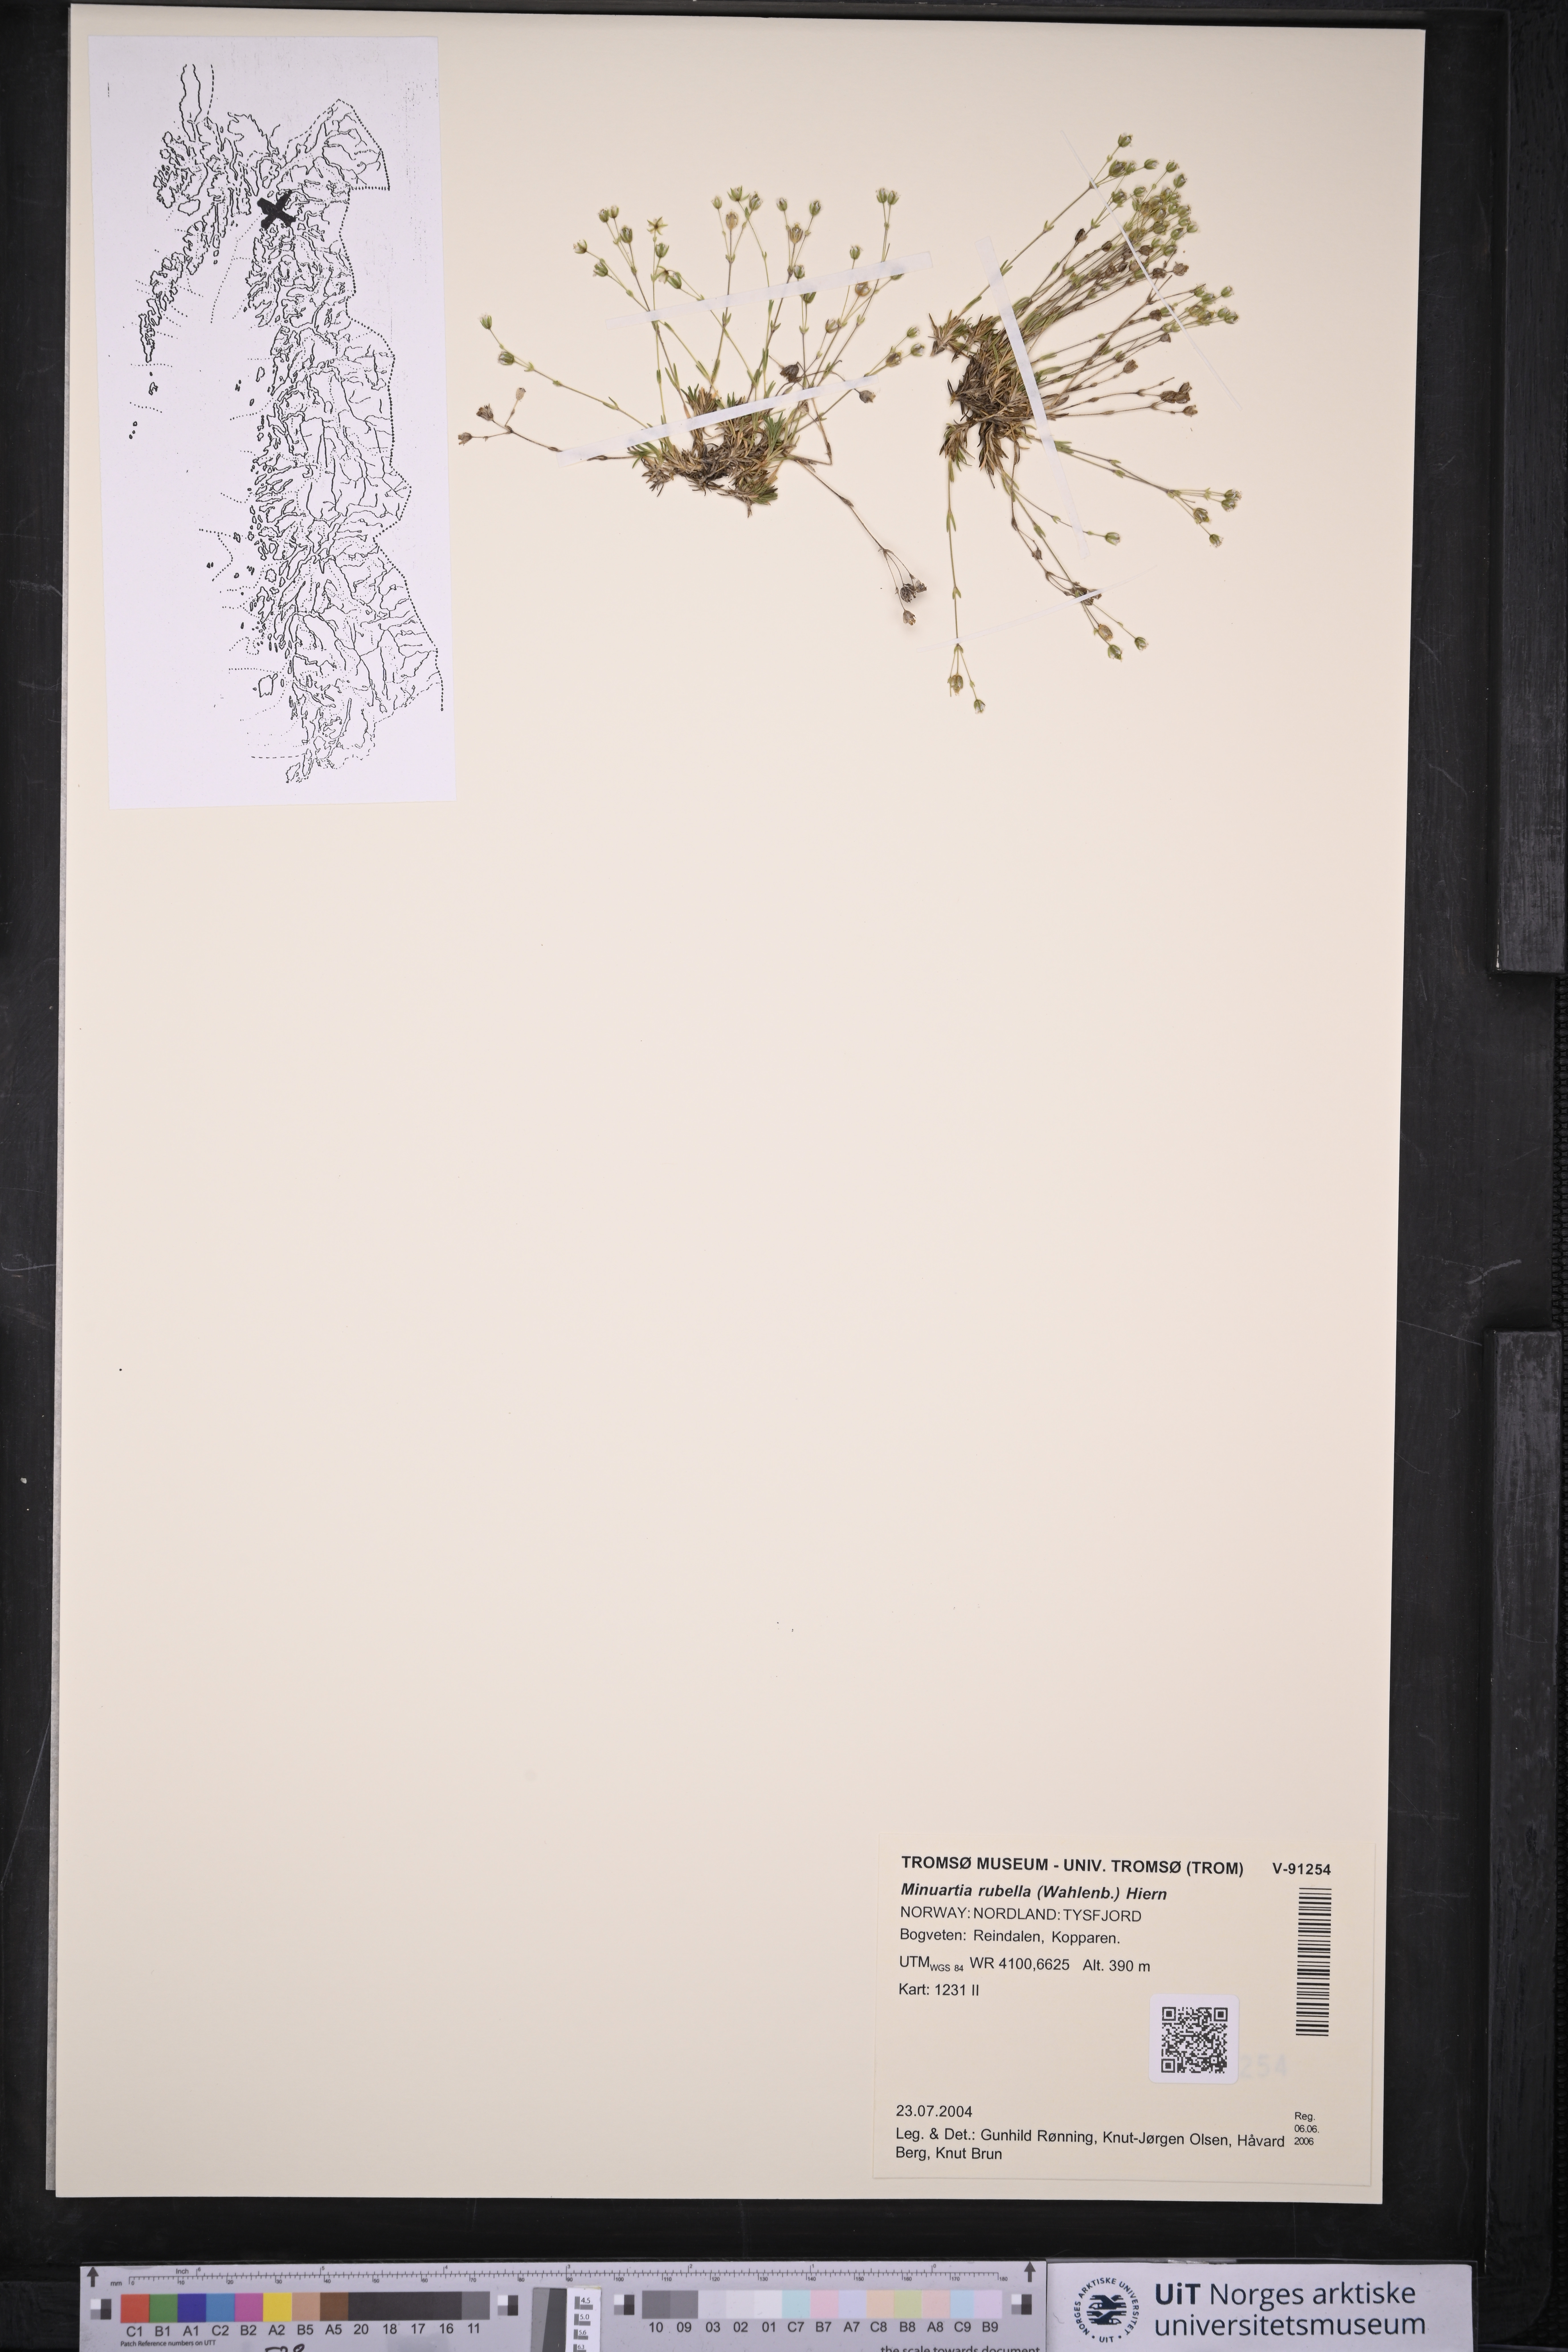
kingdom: Plantae
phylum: Tracheophyta
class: Magnoliopsida
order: Caryophyllales
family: Caryophyllaceae
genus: Sabulina
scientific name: Sabulina rubella
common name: Beautiful sandwort
